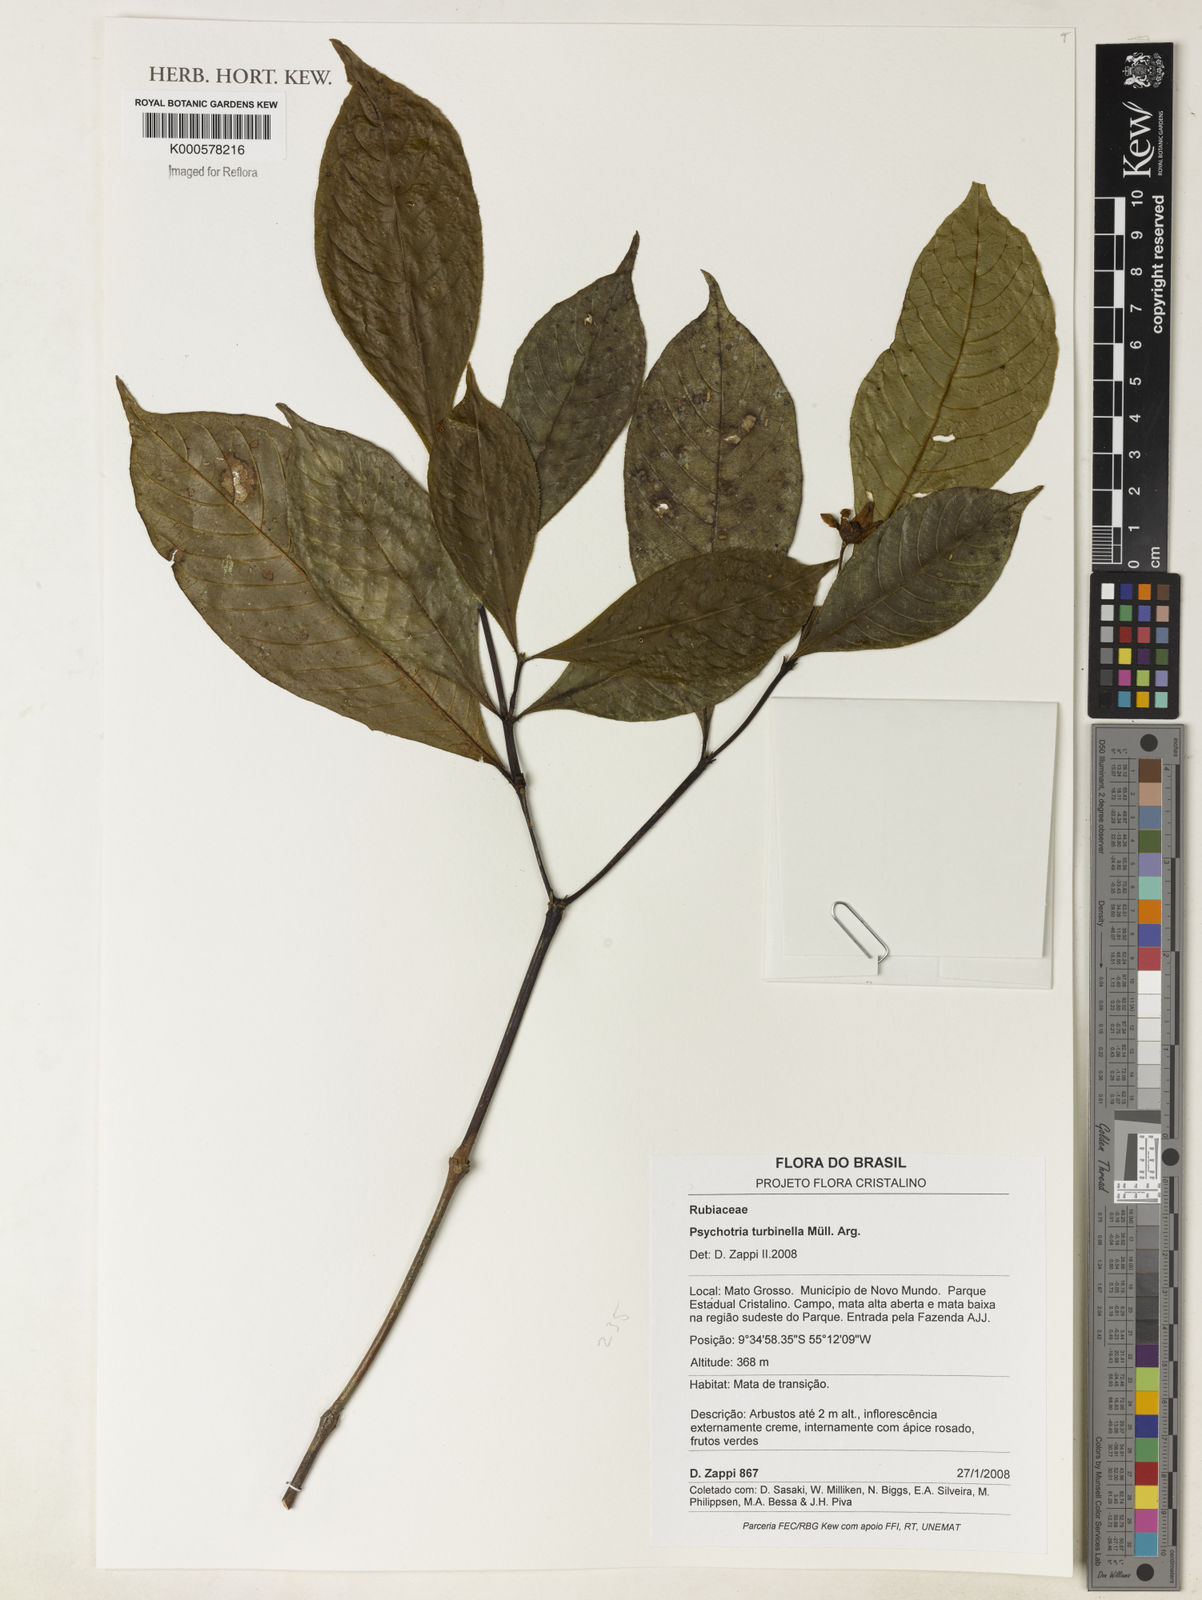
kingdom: Plantae
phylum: Tracheophyta
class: Magnoliopsida
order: Gentianales
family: Rubiaceae
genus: Psychotria
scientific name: Psychotria
